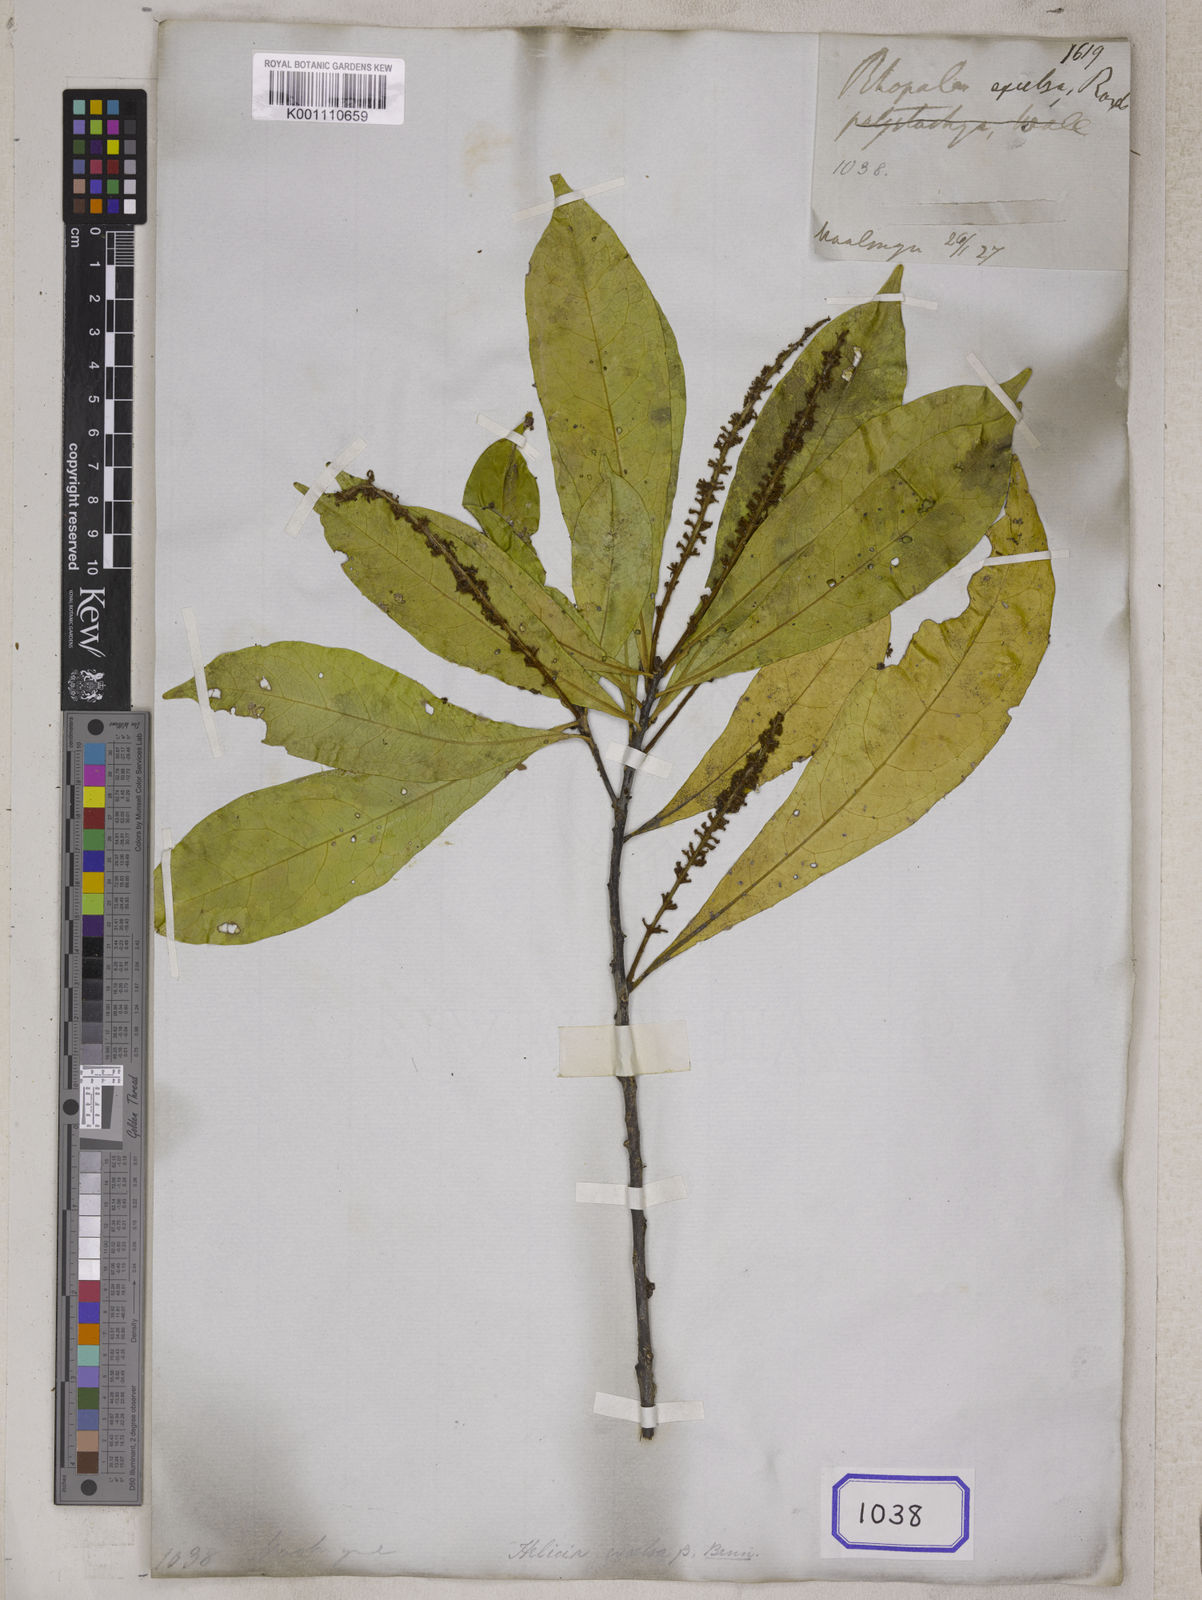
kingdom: Plantae
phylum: Tracheophyta
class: Magnoliopsida
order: Proteales
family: Proteaceae
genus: Helicia
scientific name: Helicia excelsa
